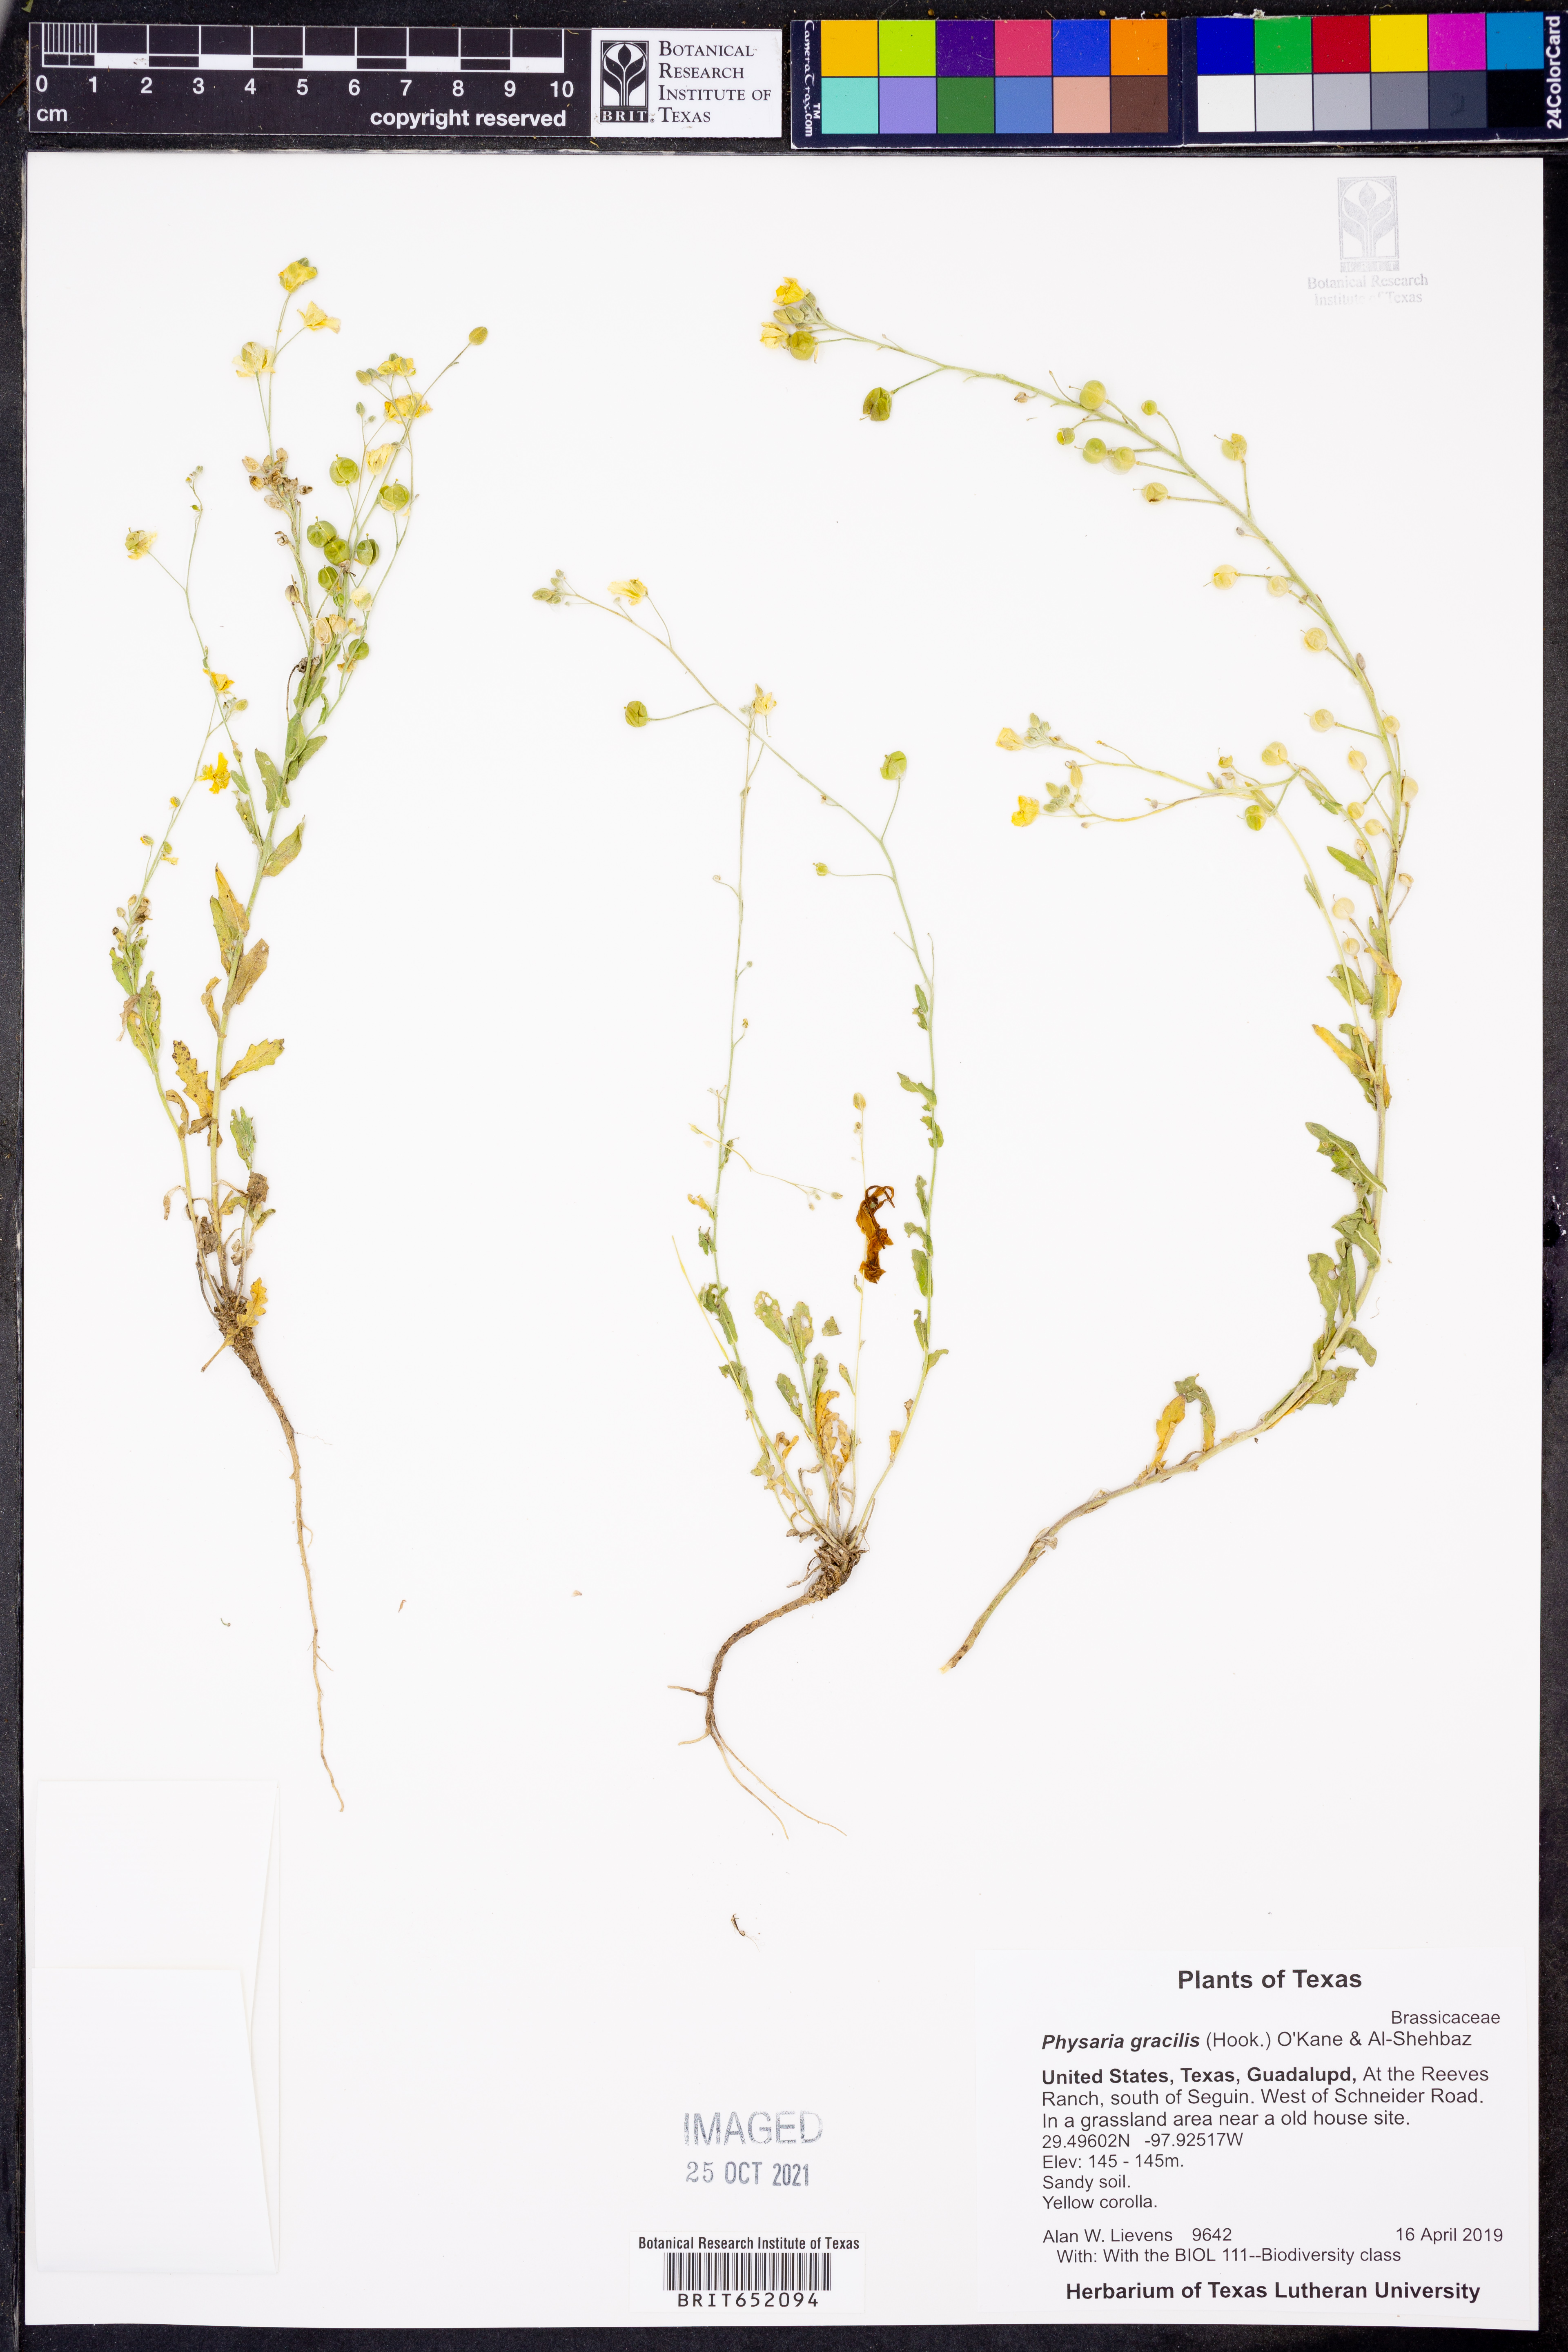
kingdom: Plantae
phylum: Tracheophyta
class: Magnoliopsida
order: Brassicales
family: Brassicaceae
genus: Physaria
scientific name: Physaria gracilis
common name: Spreading bladderpod
